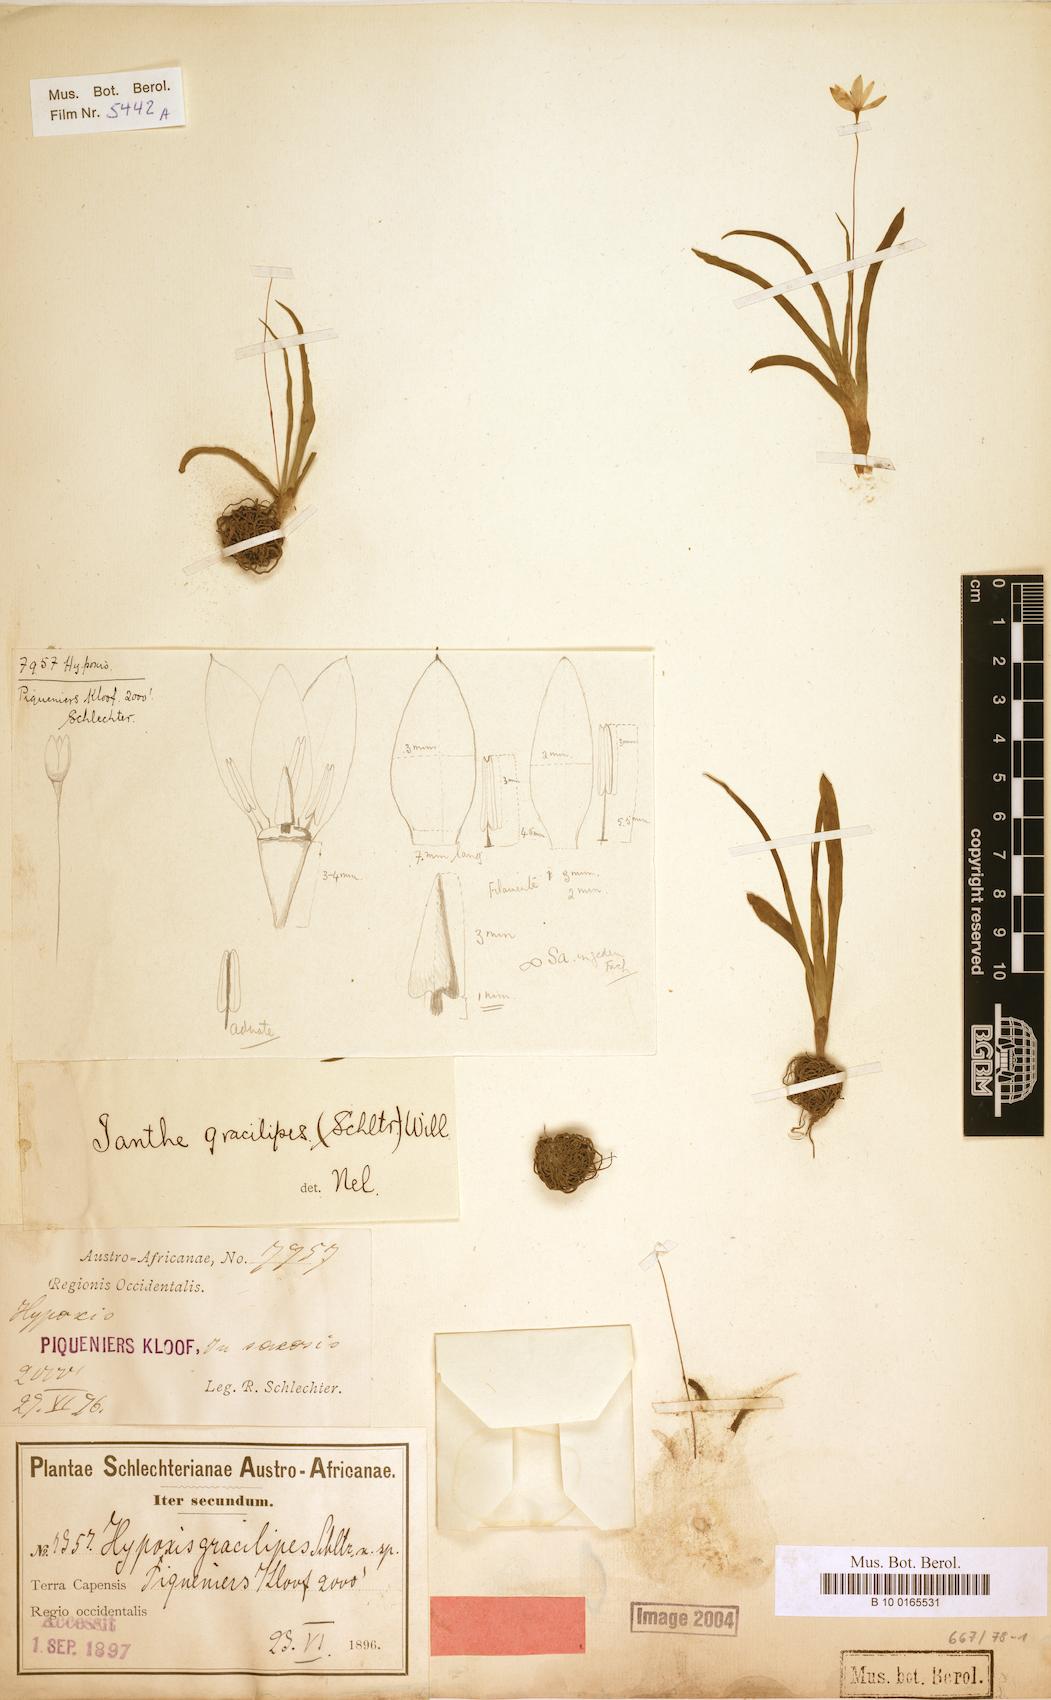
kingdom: Plantae
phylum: Tracheophyta
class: Liliopsida
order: Asparagales
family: Hypoxidaceae
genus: Pauridia
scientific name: Pauridia gracilipes
